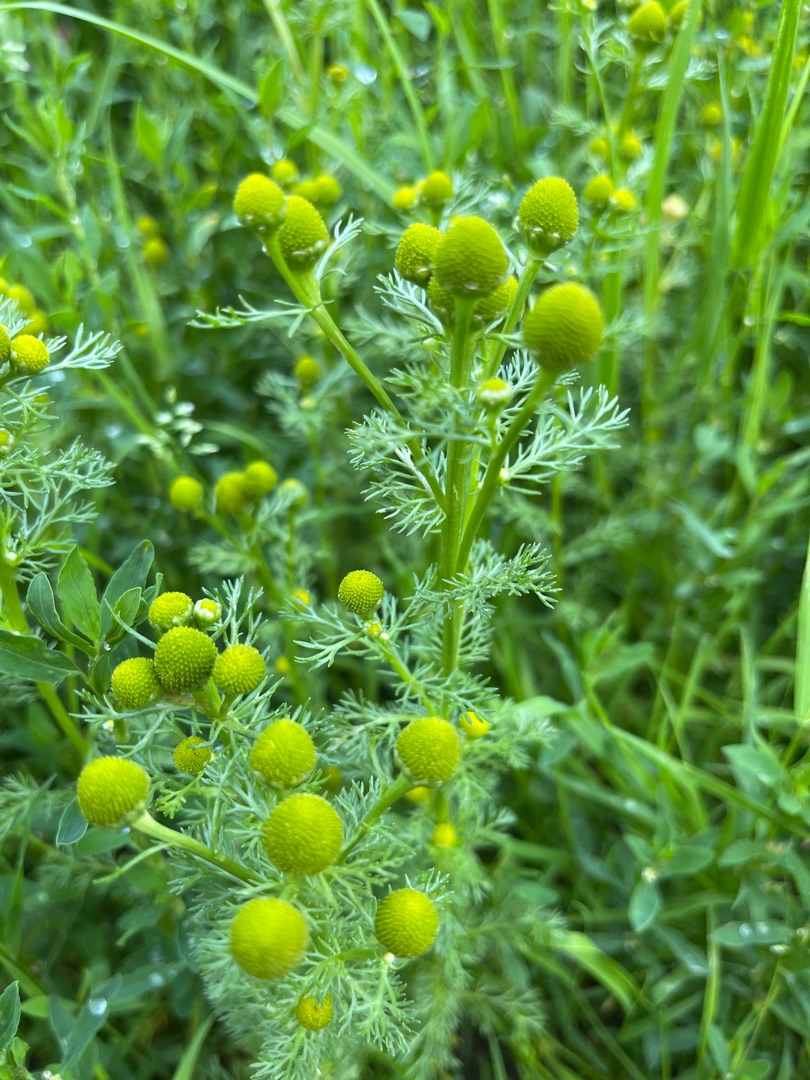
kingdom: Plantae
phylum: Tracheophyta
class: Magnoliopsida
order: Asterales
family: Asteraceae
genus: Matricaria
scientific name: Matricaria discoidea
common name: Skive-kamille
